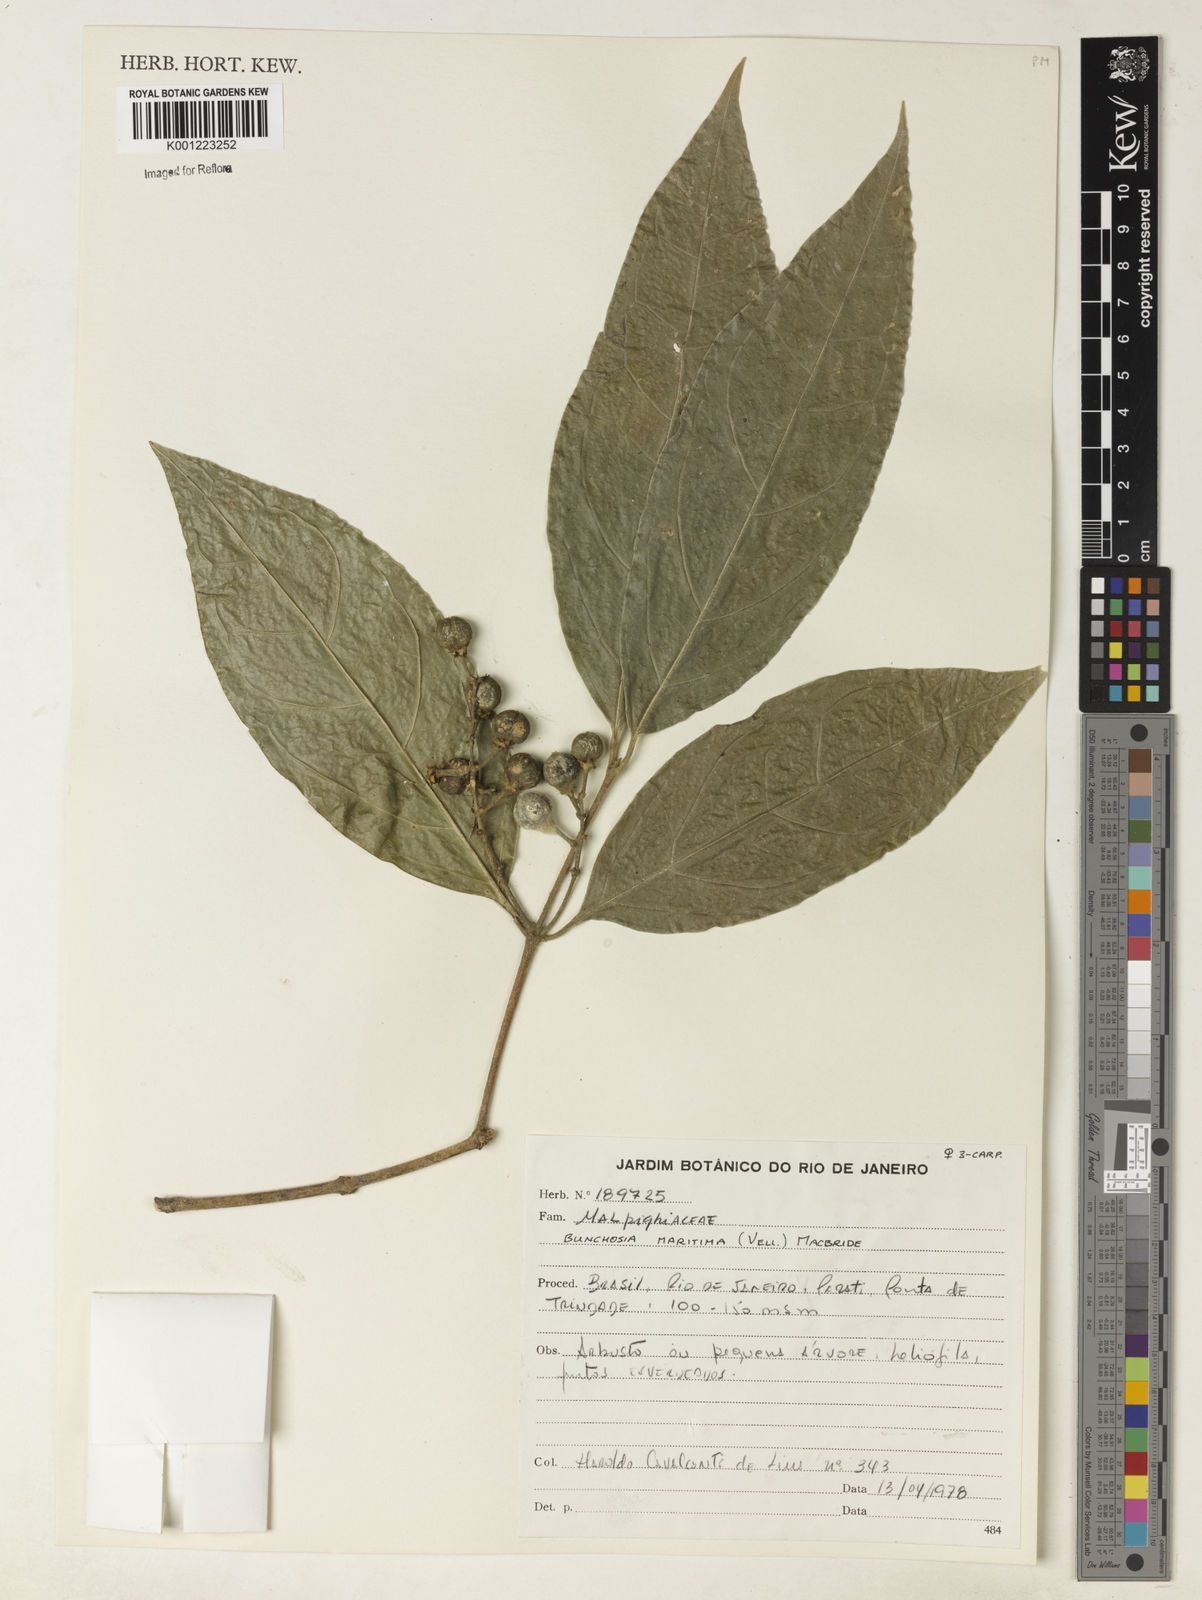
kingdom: Plantae
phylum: Tracheophyta
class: Magnoliopsida
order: Malpighiales
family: Malpighiaceae
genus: Bunchosia
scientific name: Bunchosia maritima
